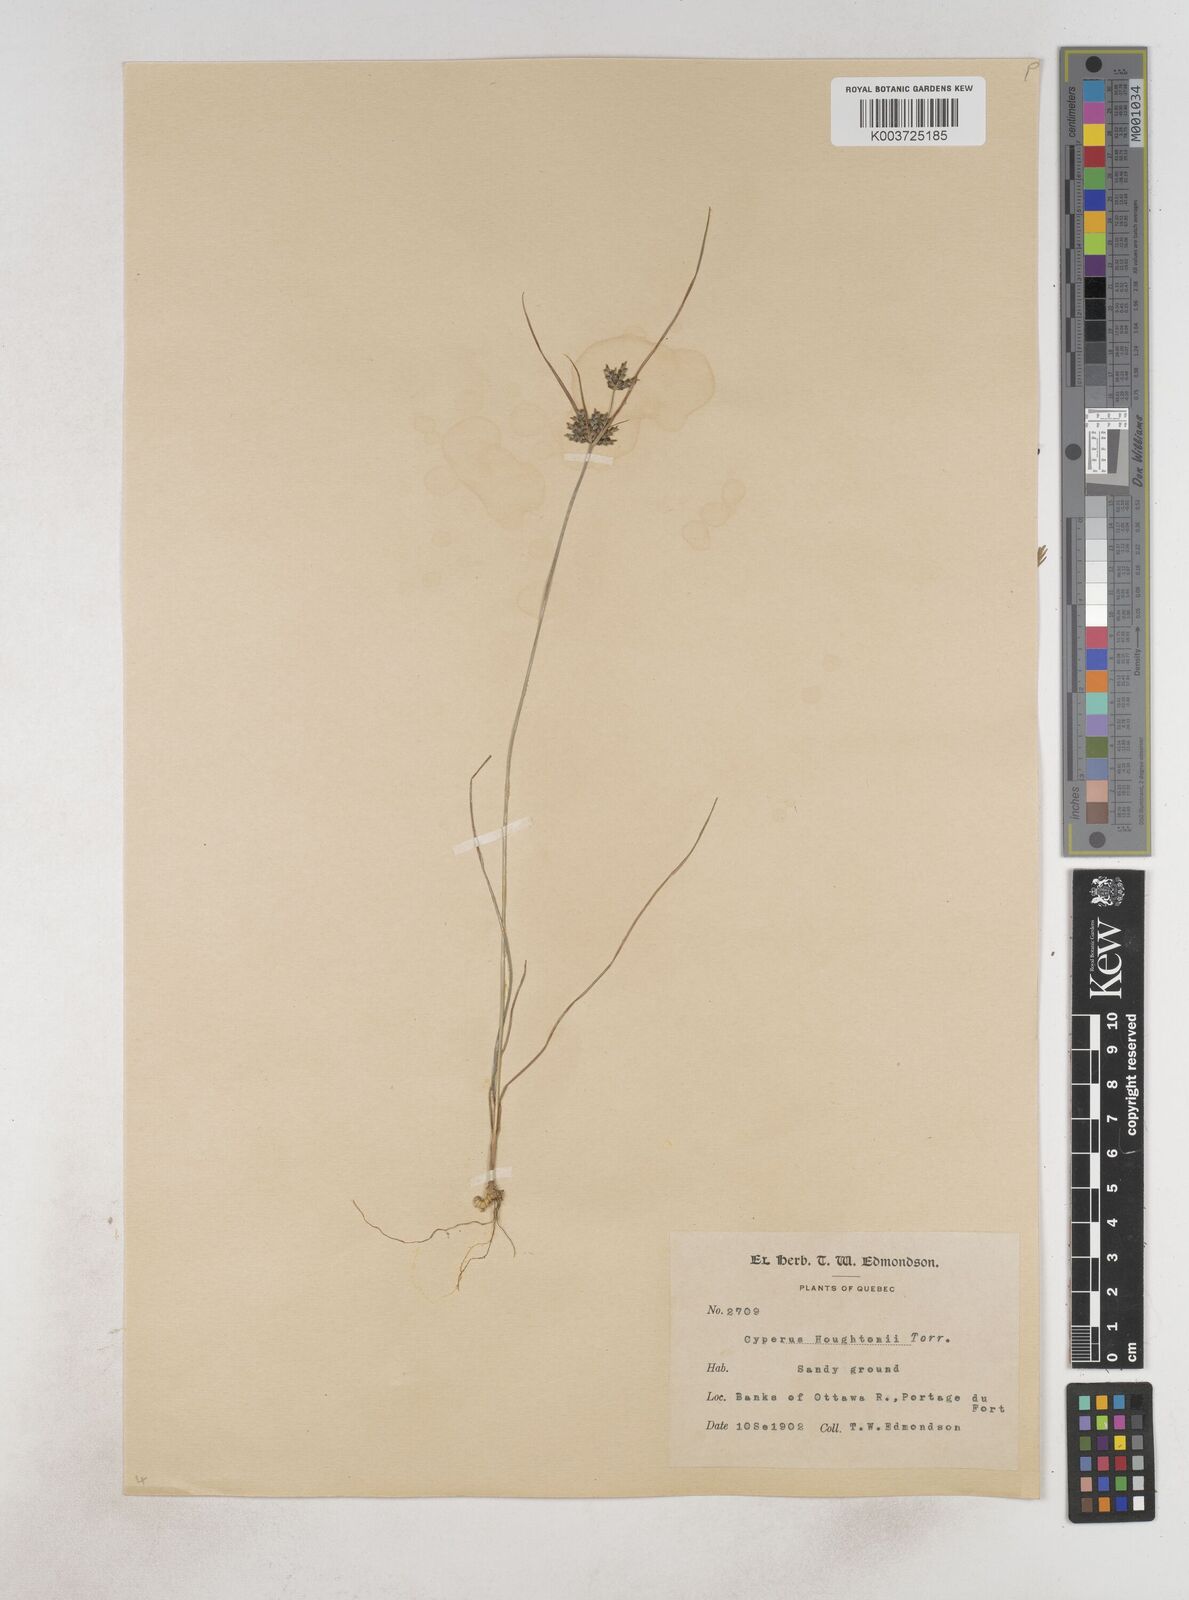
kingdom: Plantae
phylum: Tracheophyta
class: Liliopsida
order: Poales
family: Cyperaceae
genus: Cyperus
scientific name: Cyperus retrorsus
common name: Pinebarren flat sedge
